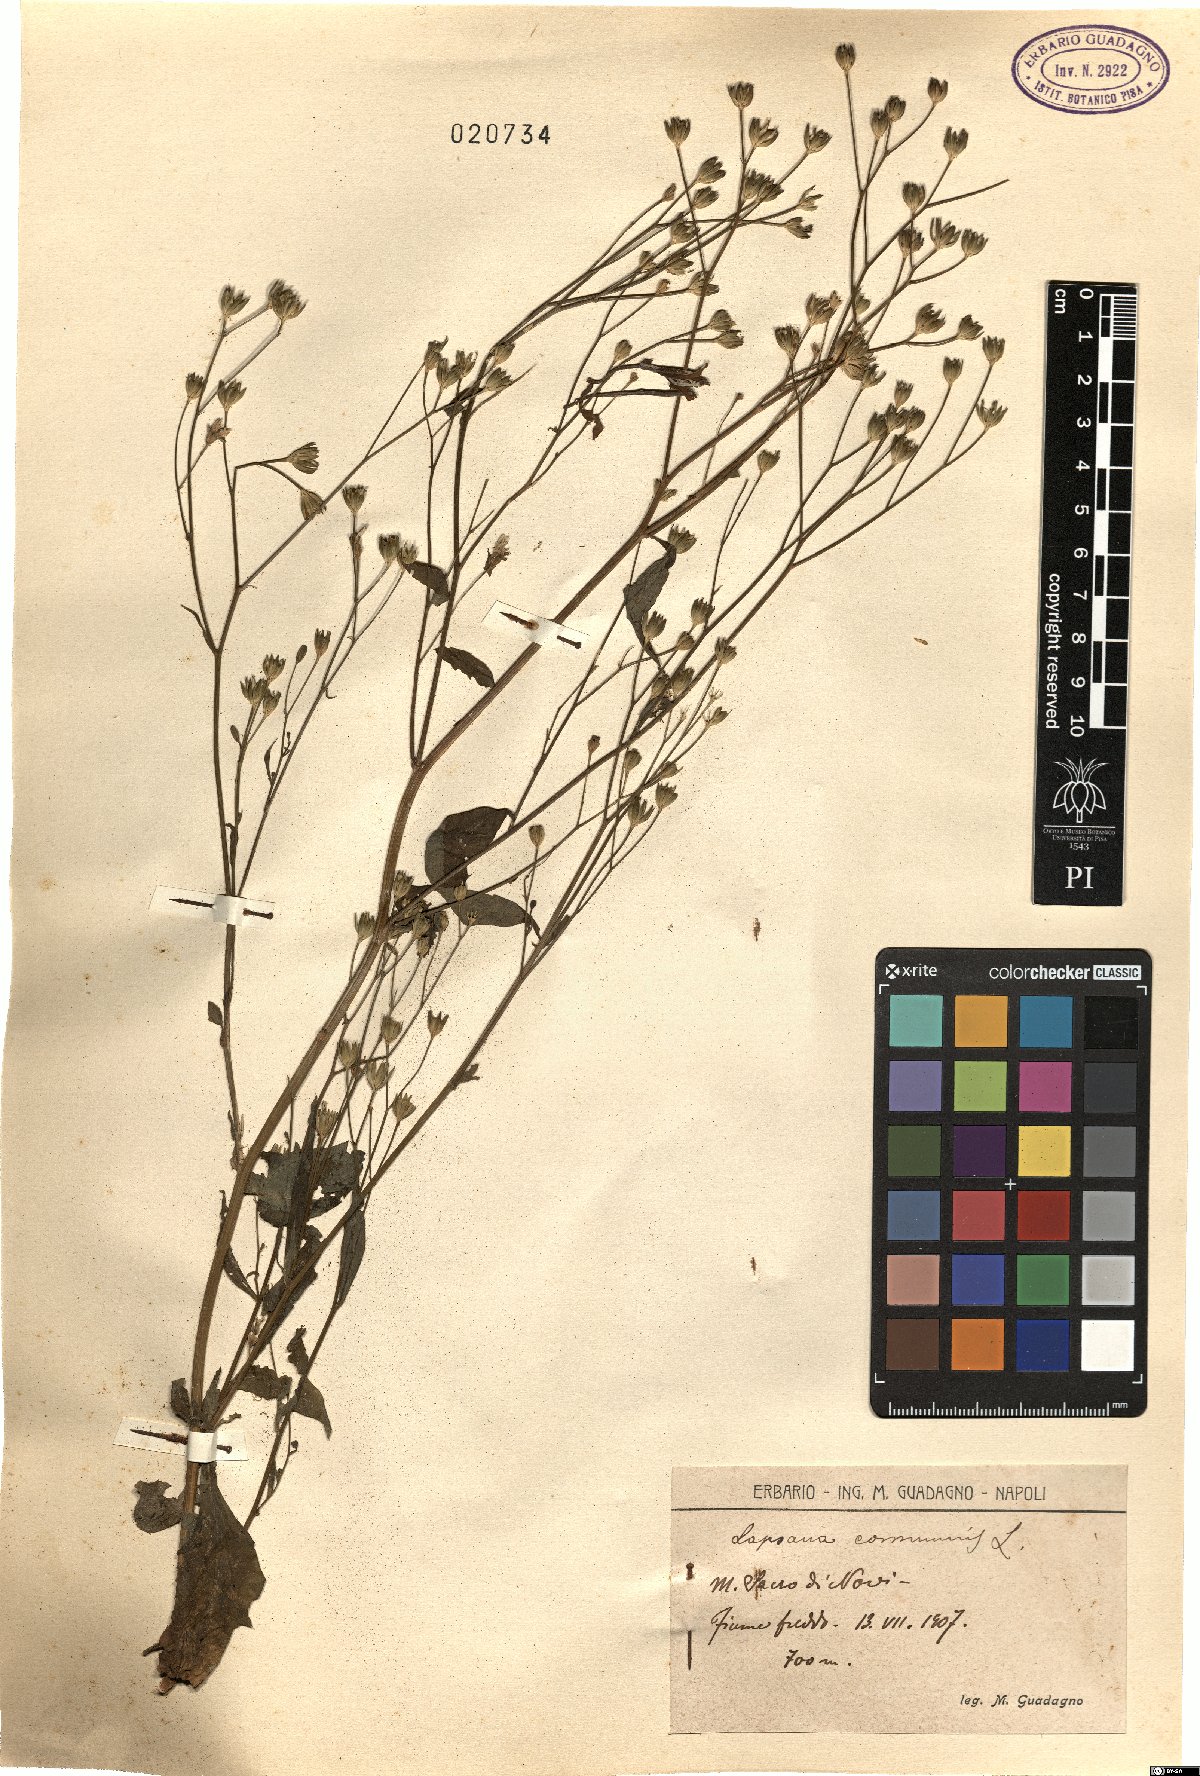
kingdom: Plantae
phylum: Tracheophyta
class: Magnoliopsida
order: Asterales
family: Asteraceae
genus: Lapsana
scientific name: Lapsana communis
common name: Nipplewort
